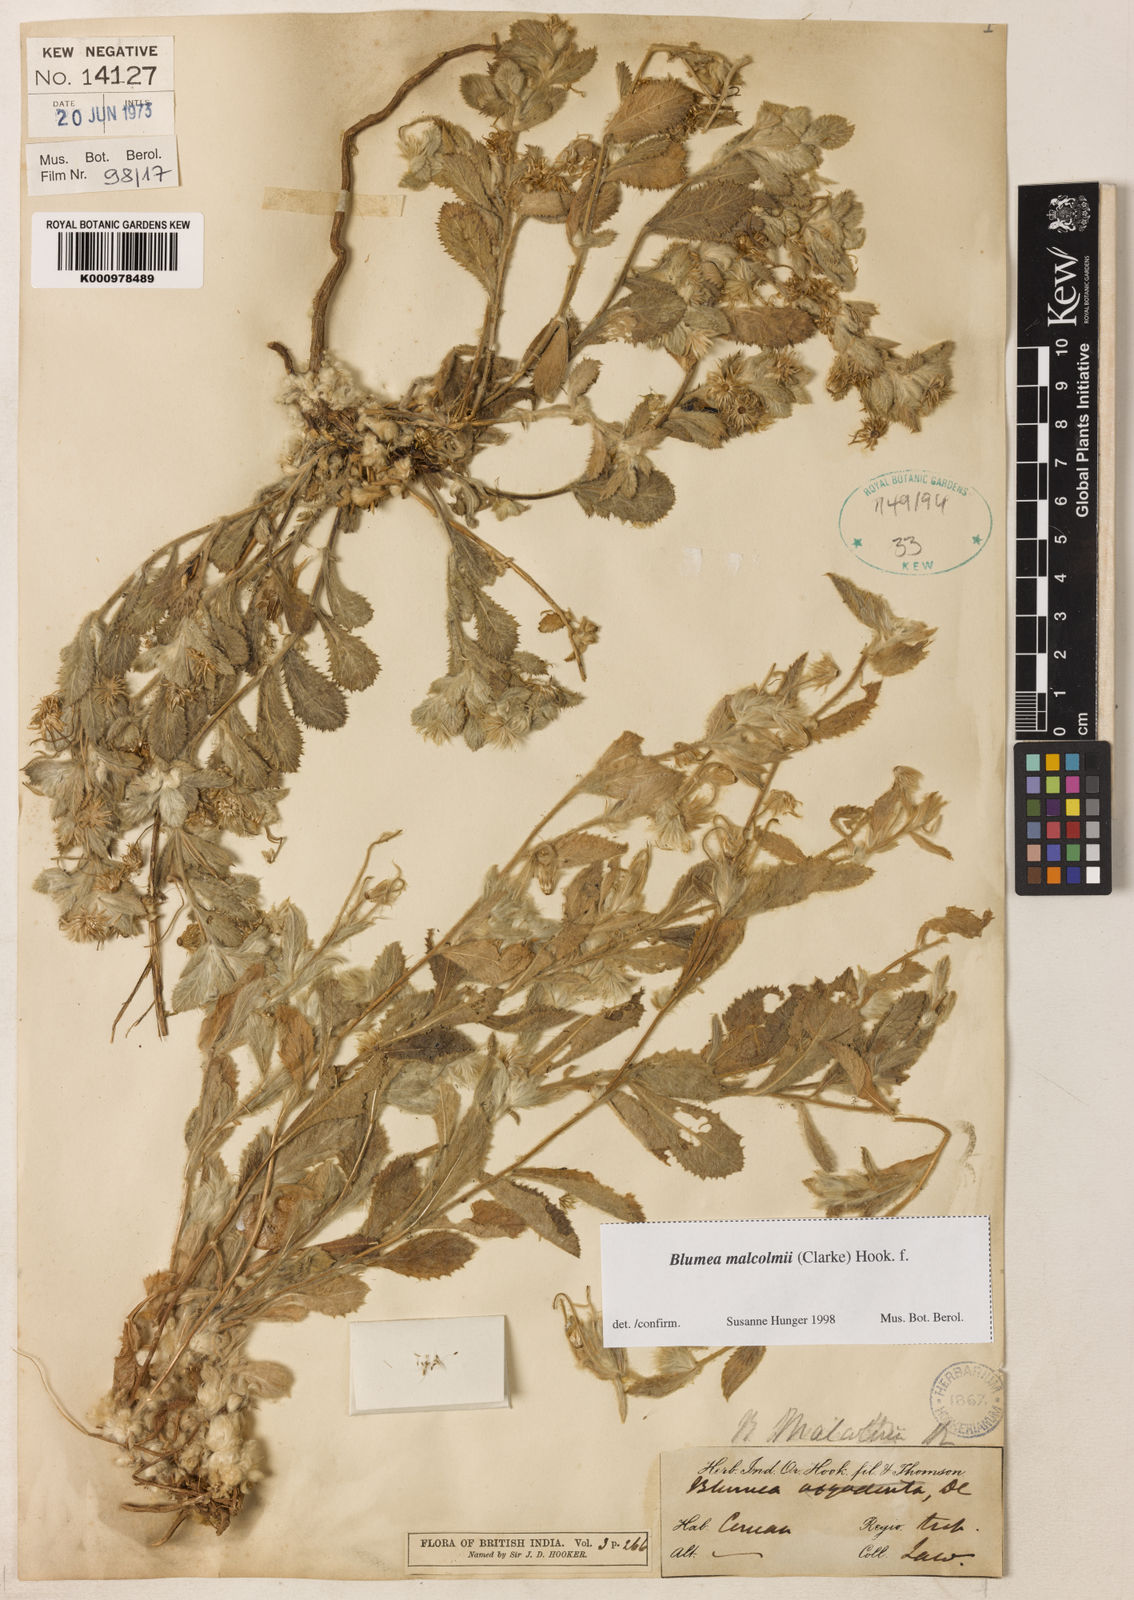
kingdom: Plantae
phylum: Tracheophyta
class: Magnoliopsida
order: Asterales
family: Asteraceae
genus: Blumea
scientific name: Blumea malcolmii
